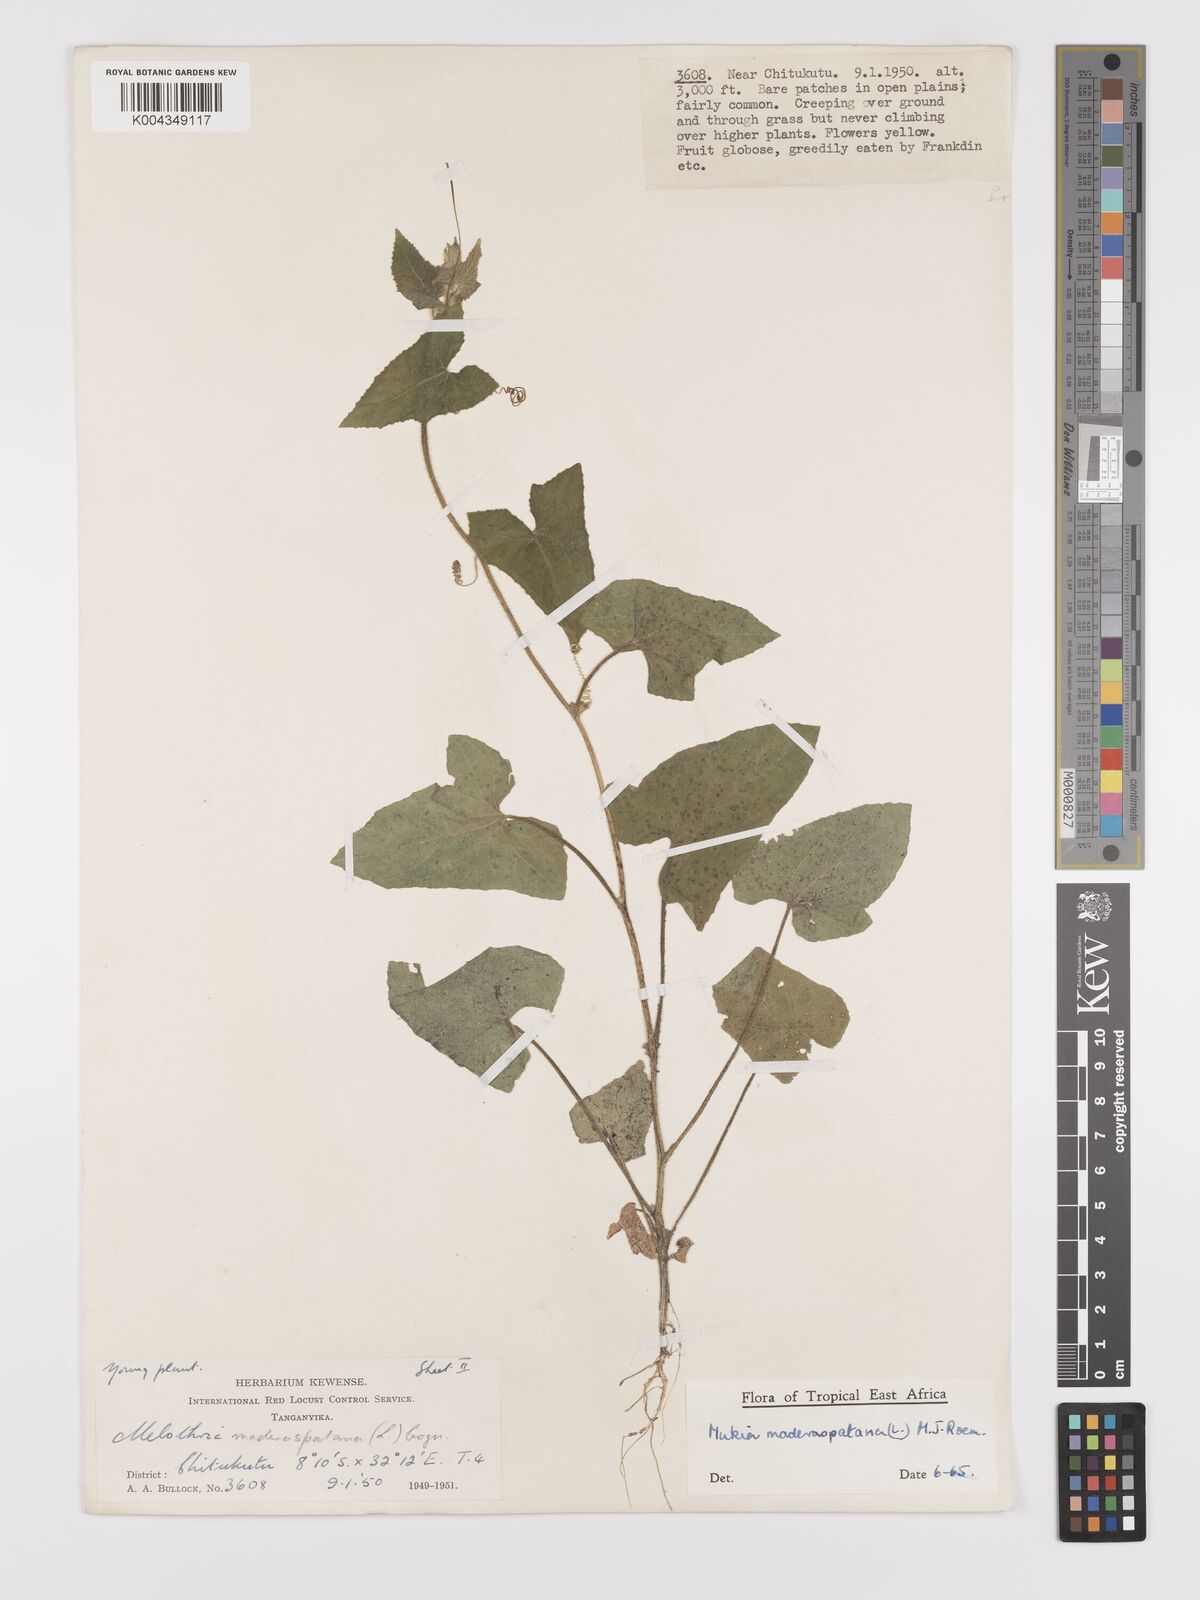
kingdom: Plantae
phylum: Tracheophyta
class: Magnoliopsida
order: Cucurbitales
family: Cucurbitaceae
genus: Cucumis
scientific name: Cucumis maderaspatanus
